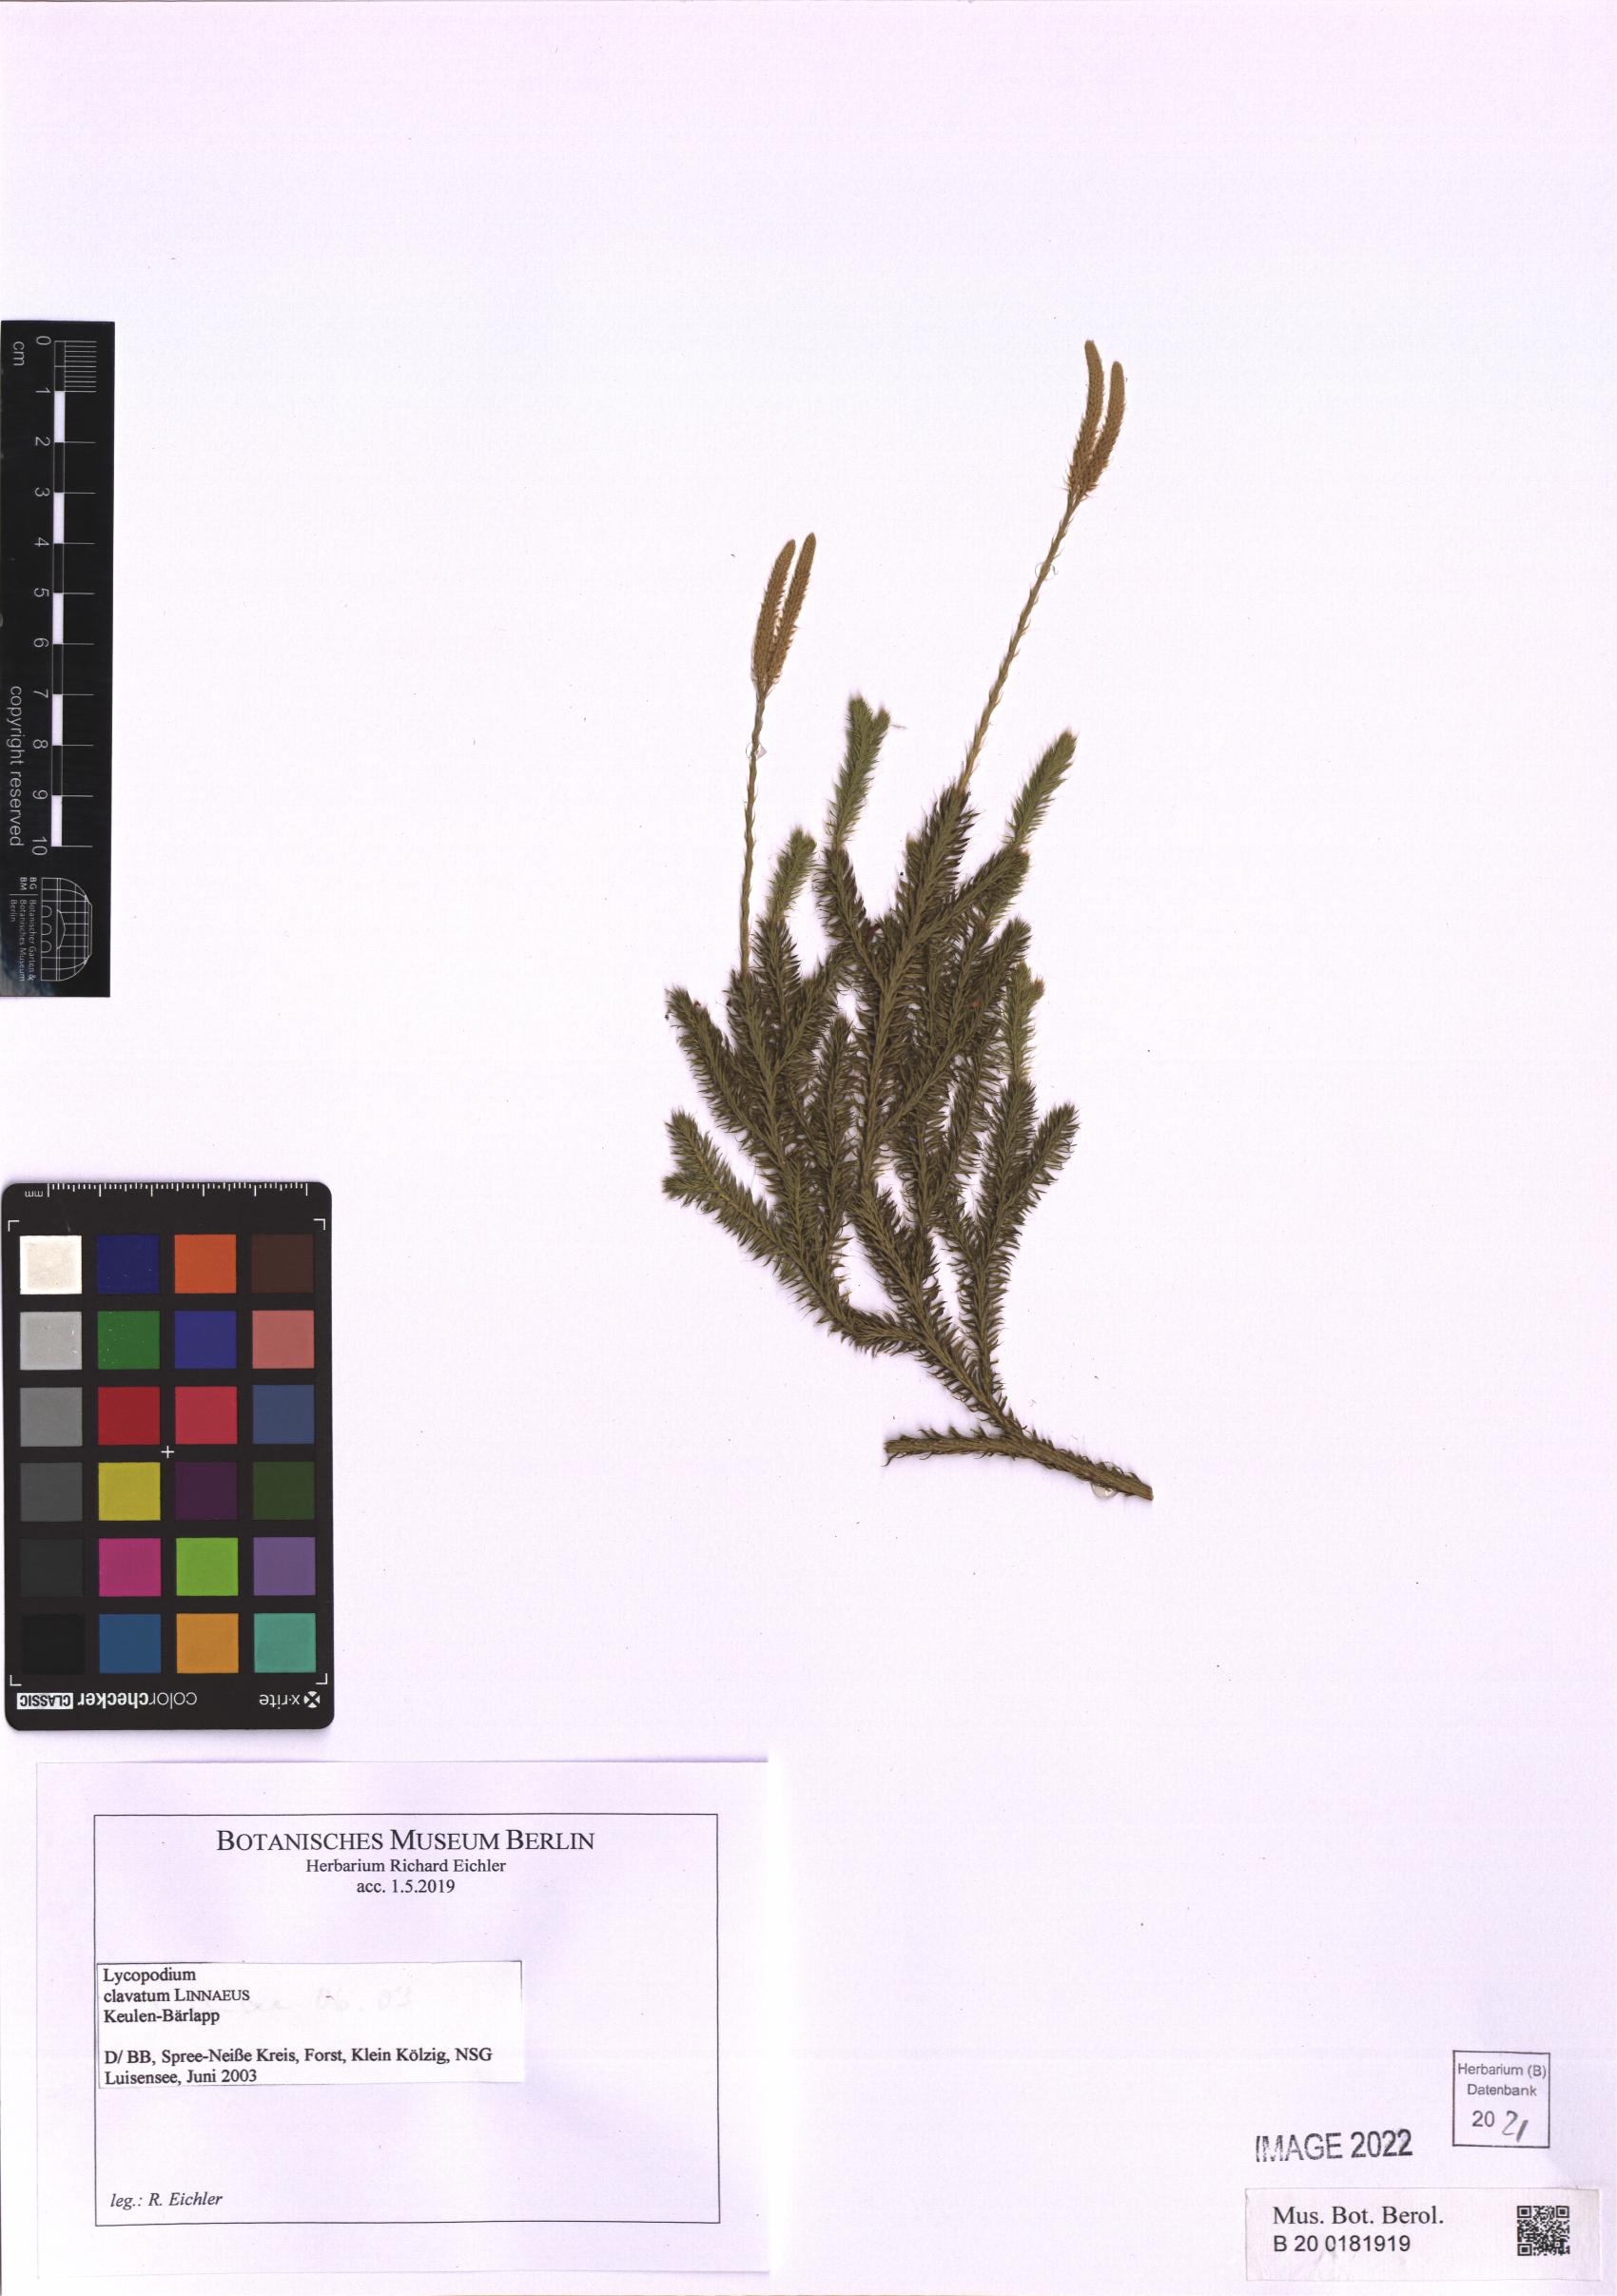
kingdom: Plantae
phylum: Tracheophyta
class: Lycopodiopsida
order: Lycopodiales
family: Lycopodiaceae
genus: Lycopodium
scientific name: Lycopodium clavatum
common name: Stag's-horn clubmoss
